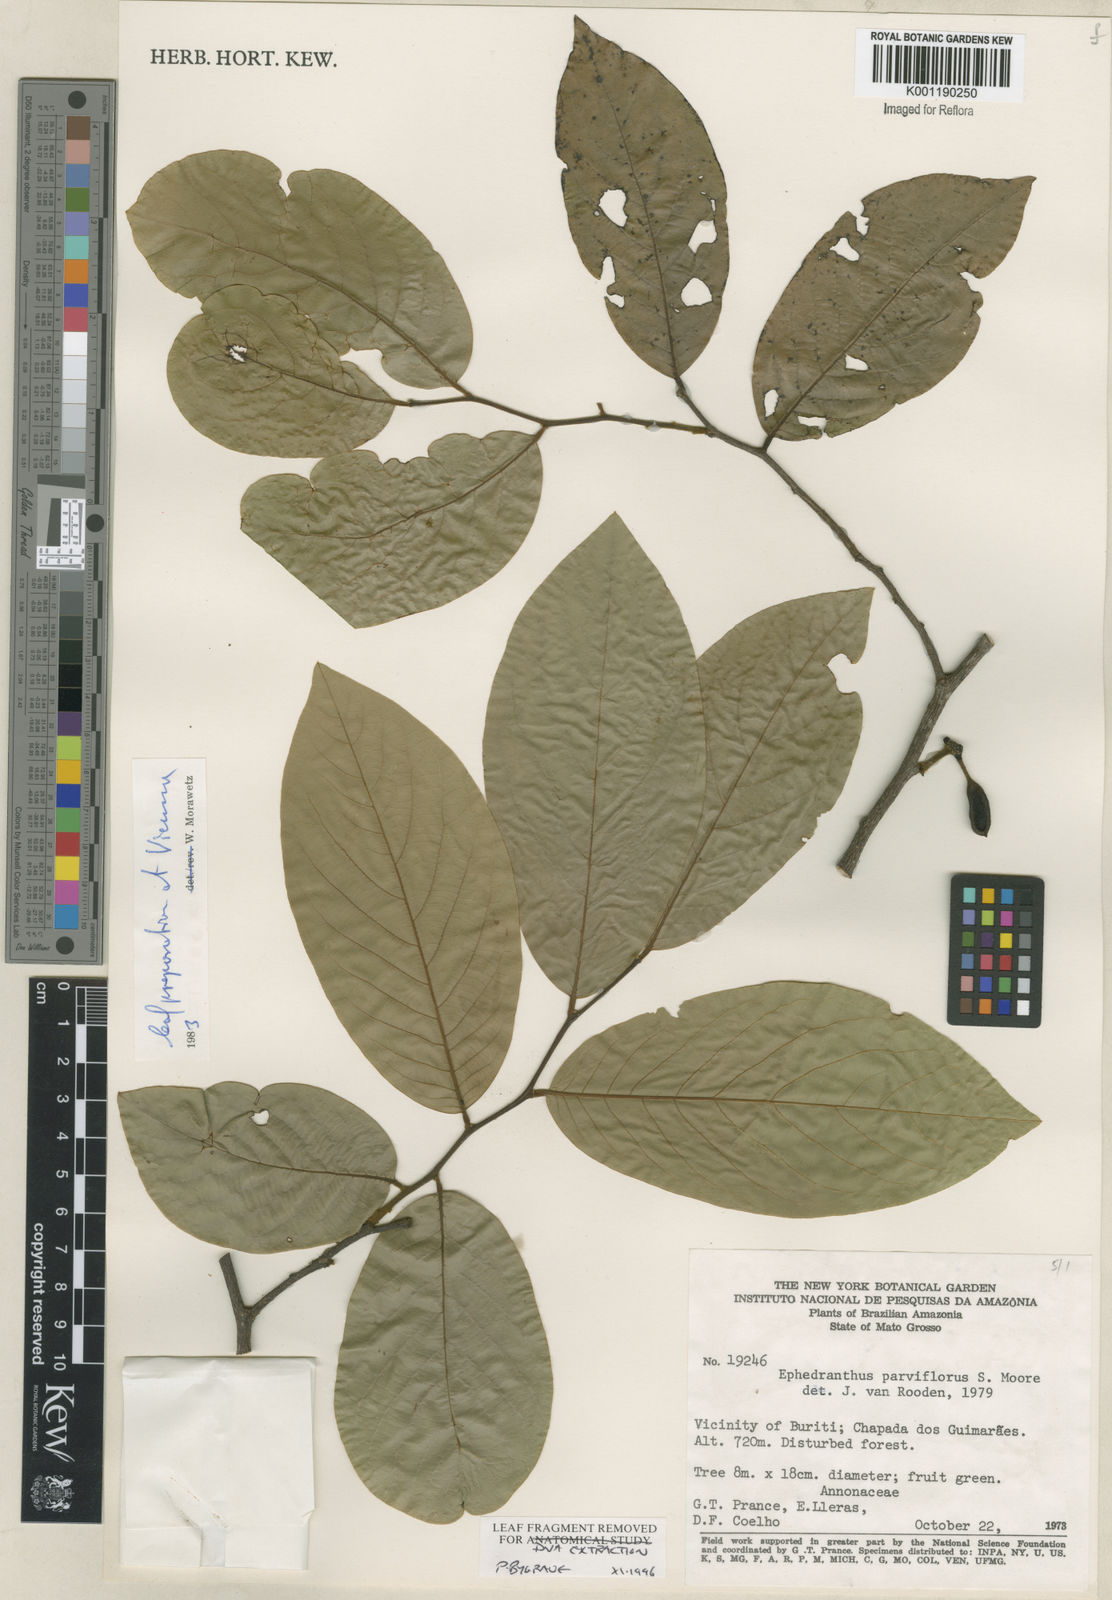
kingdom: Plantae
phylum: Tracheophyta
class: Magnoliopsida
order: Magnoliales
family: Annonaceae
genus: Ephedranthus
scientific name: Ephedranthus parviflorus
